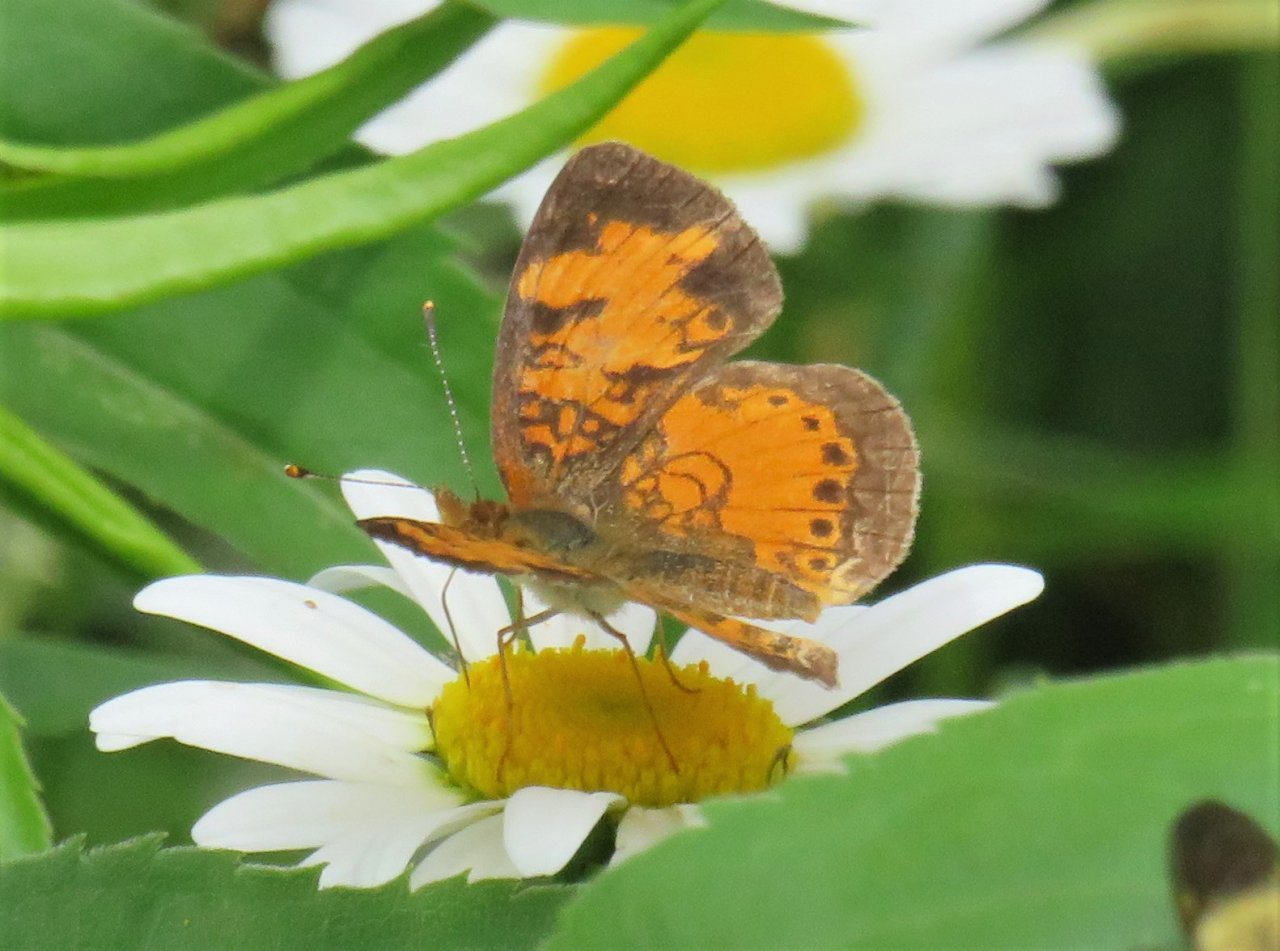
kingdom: Animalia
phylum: Arthropoda
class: Insecta
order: Lepidoptera
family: Nymphalidae
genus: Phyciodes
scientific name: Phyciodes tharos
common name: Northern Crescent
